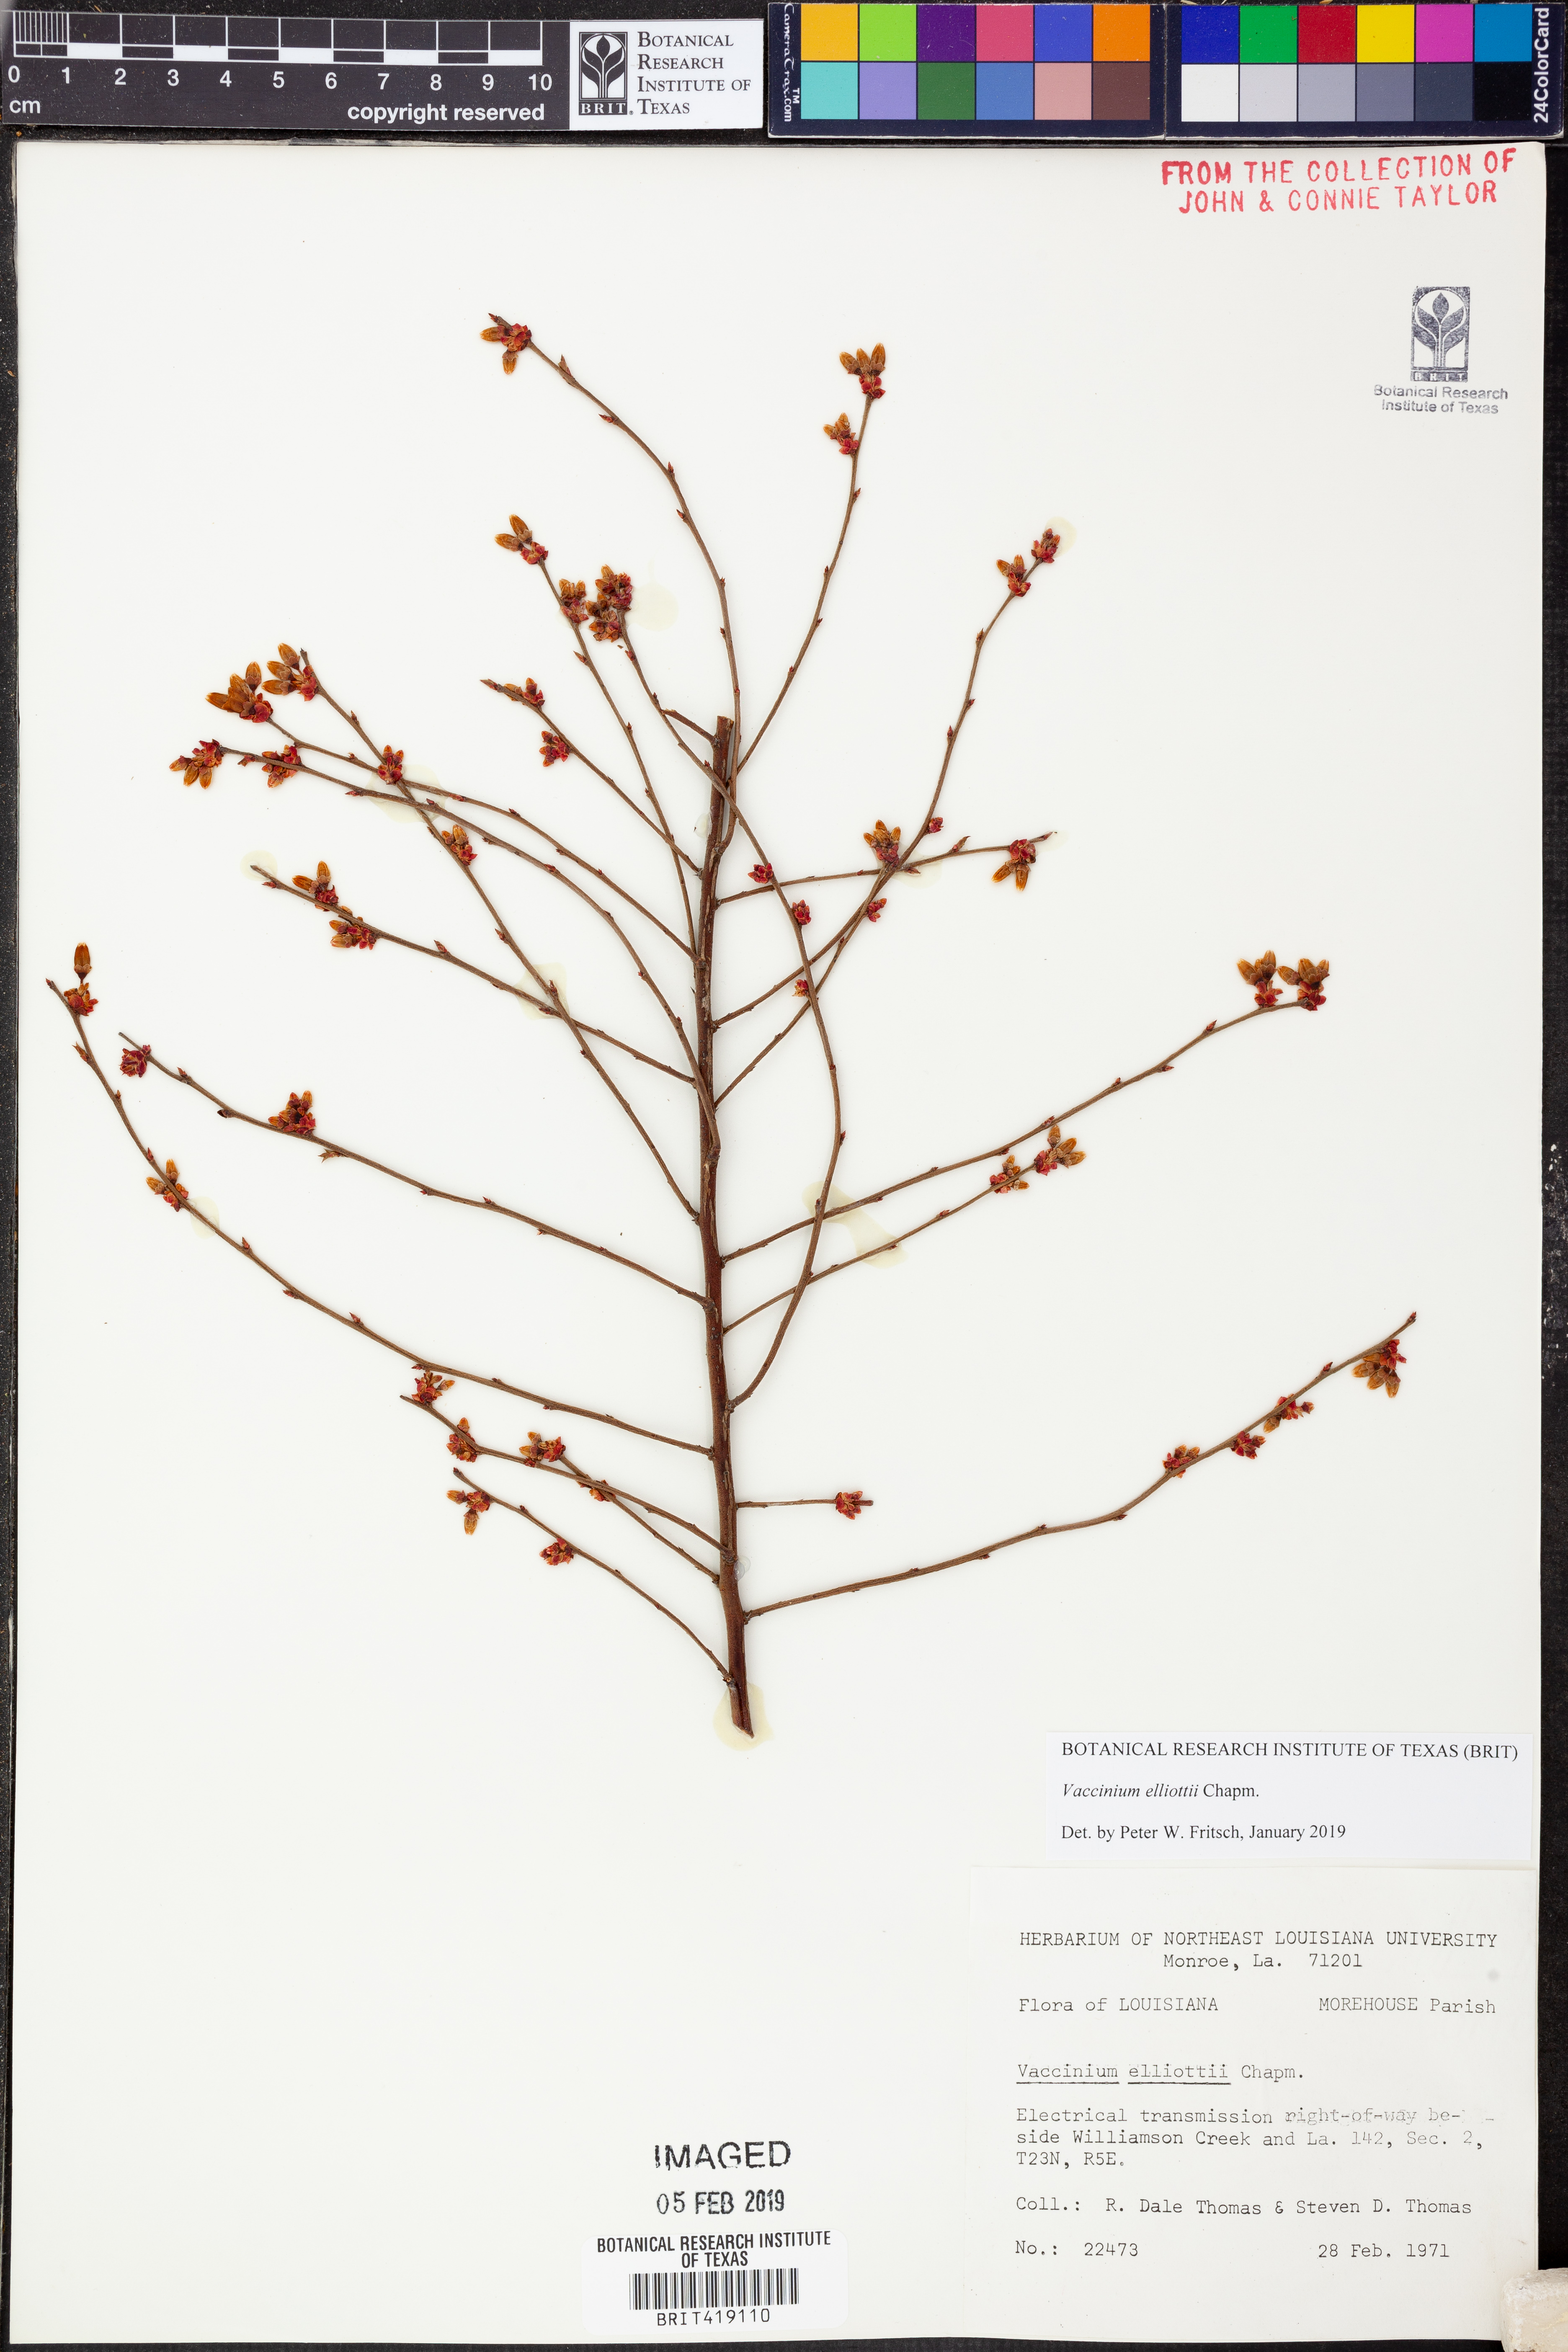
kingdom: Plantae
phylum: Tracheophyta
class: Magnoliopsida
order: Ericales
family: Ericaceae
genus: Vaccinium
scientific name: Vaccinium corymbosum
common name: Blueberry
